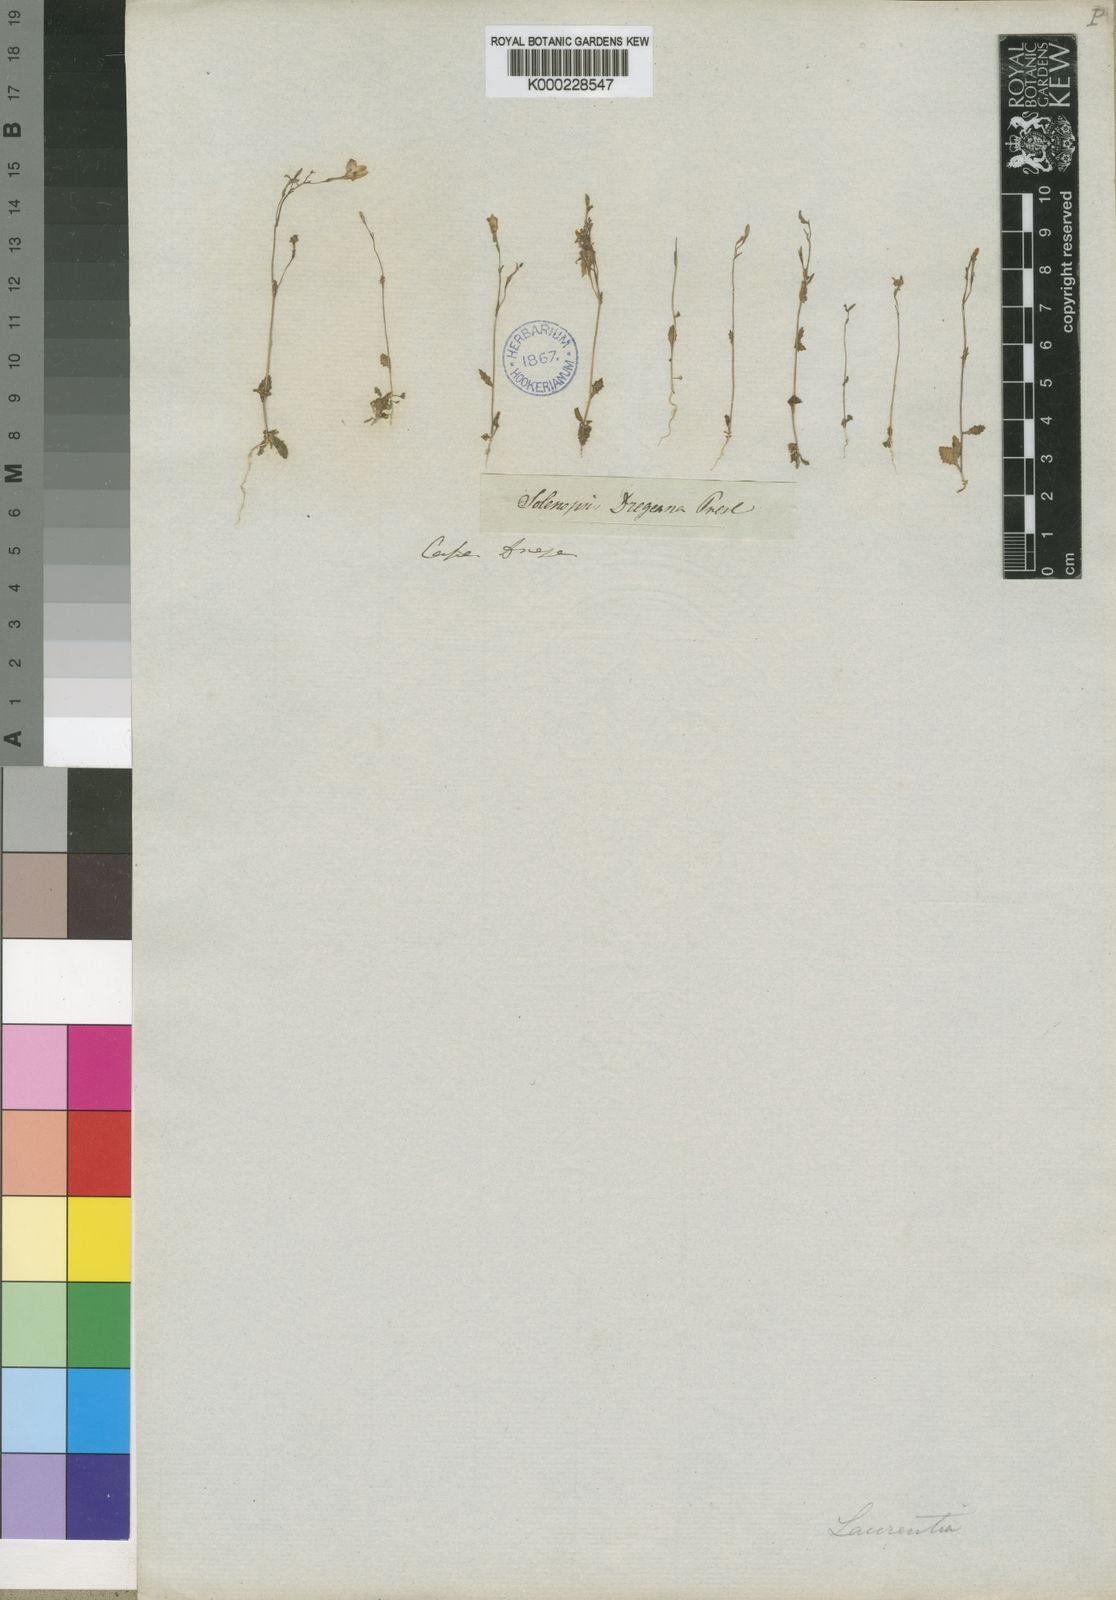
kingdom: Plantae
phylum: Tracheophyta
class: Magnoliopsida
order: Asterales
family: Campanulaceae
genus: Wimmerella
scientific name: Wimmerella
